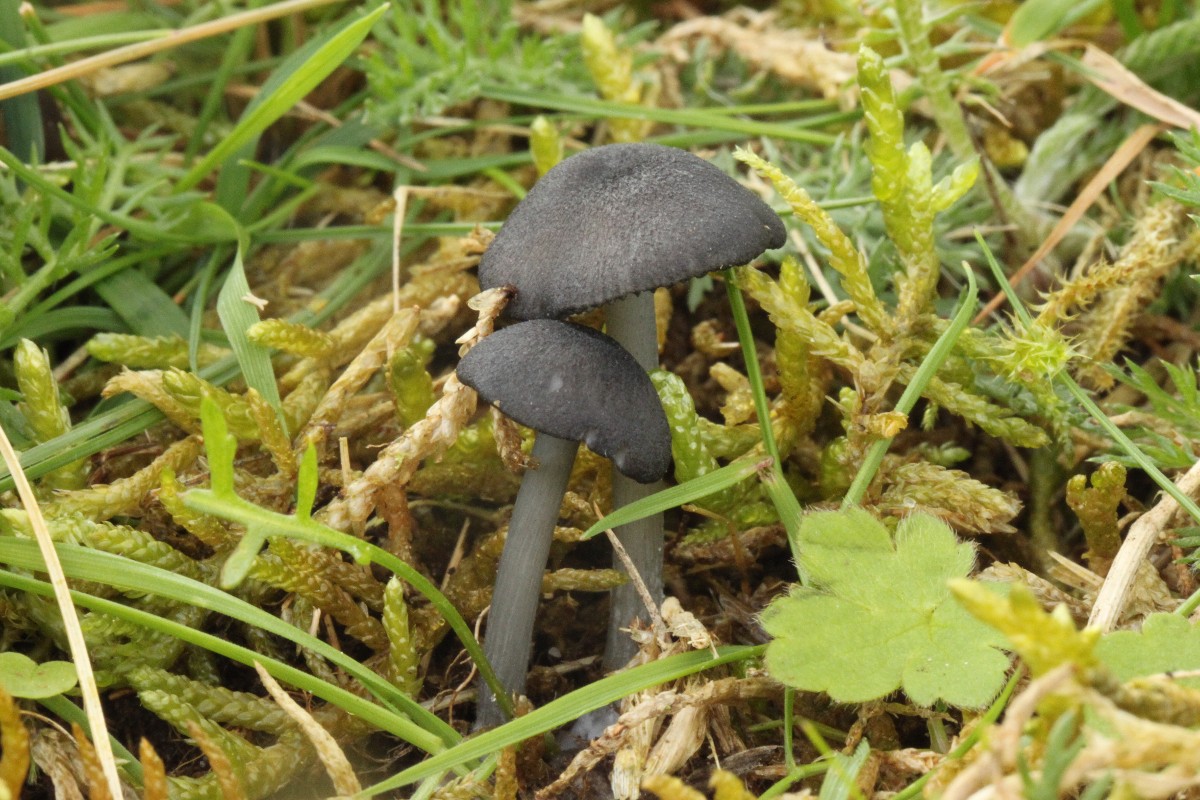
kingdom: Fungi
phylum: Basidiomycota
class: Agaricomycetes
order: Agaricales
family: Entolomataceae
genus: Entoloma
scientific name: Entoloma
